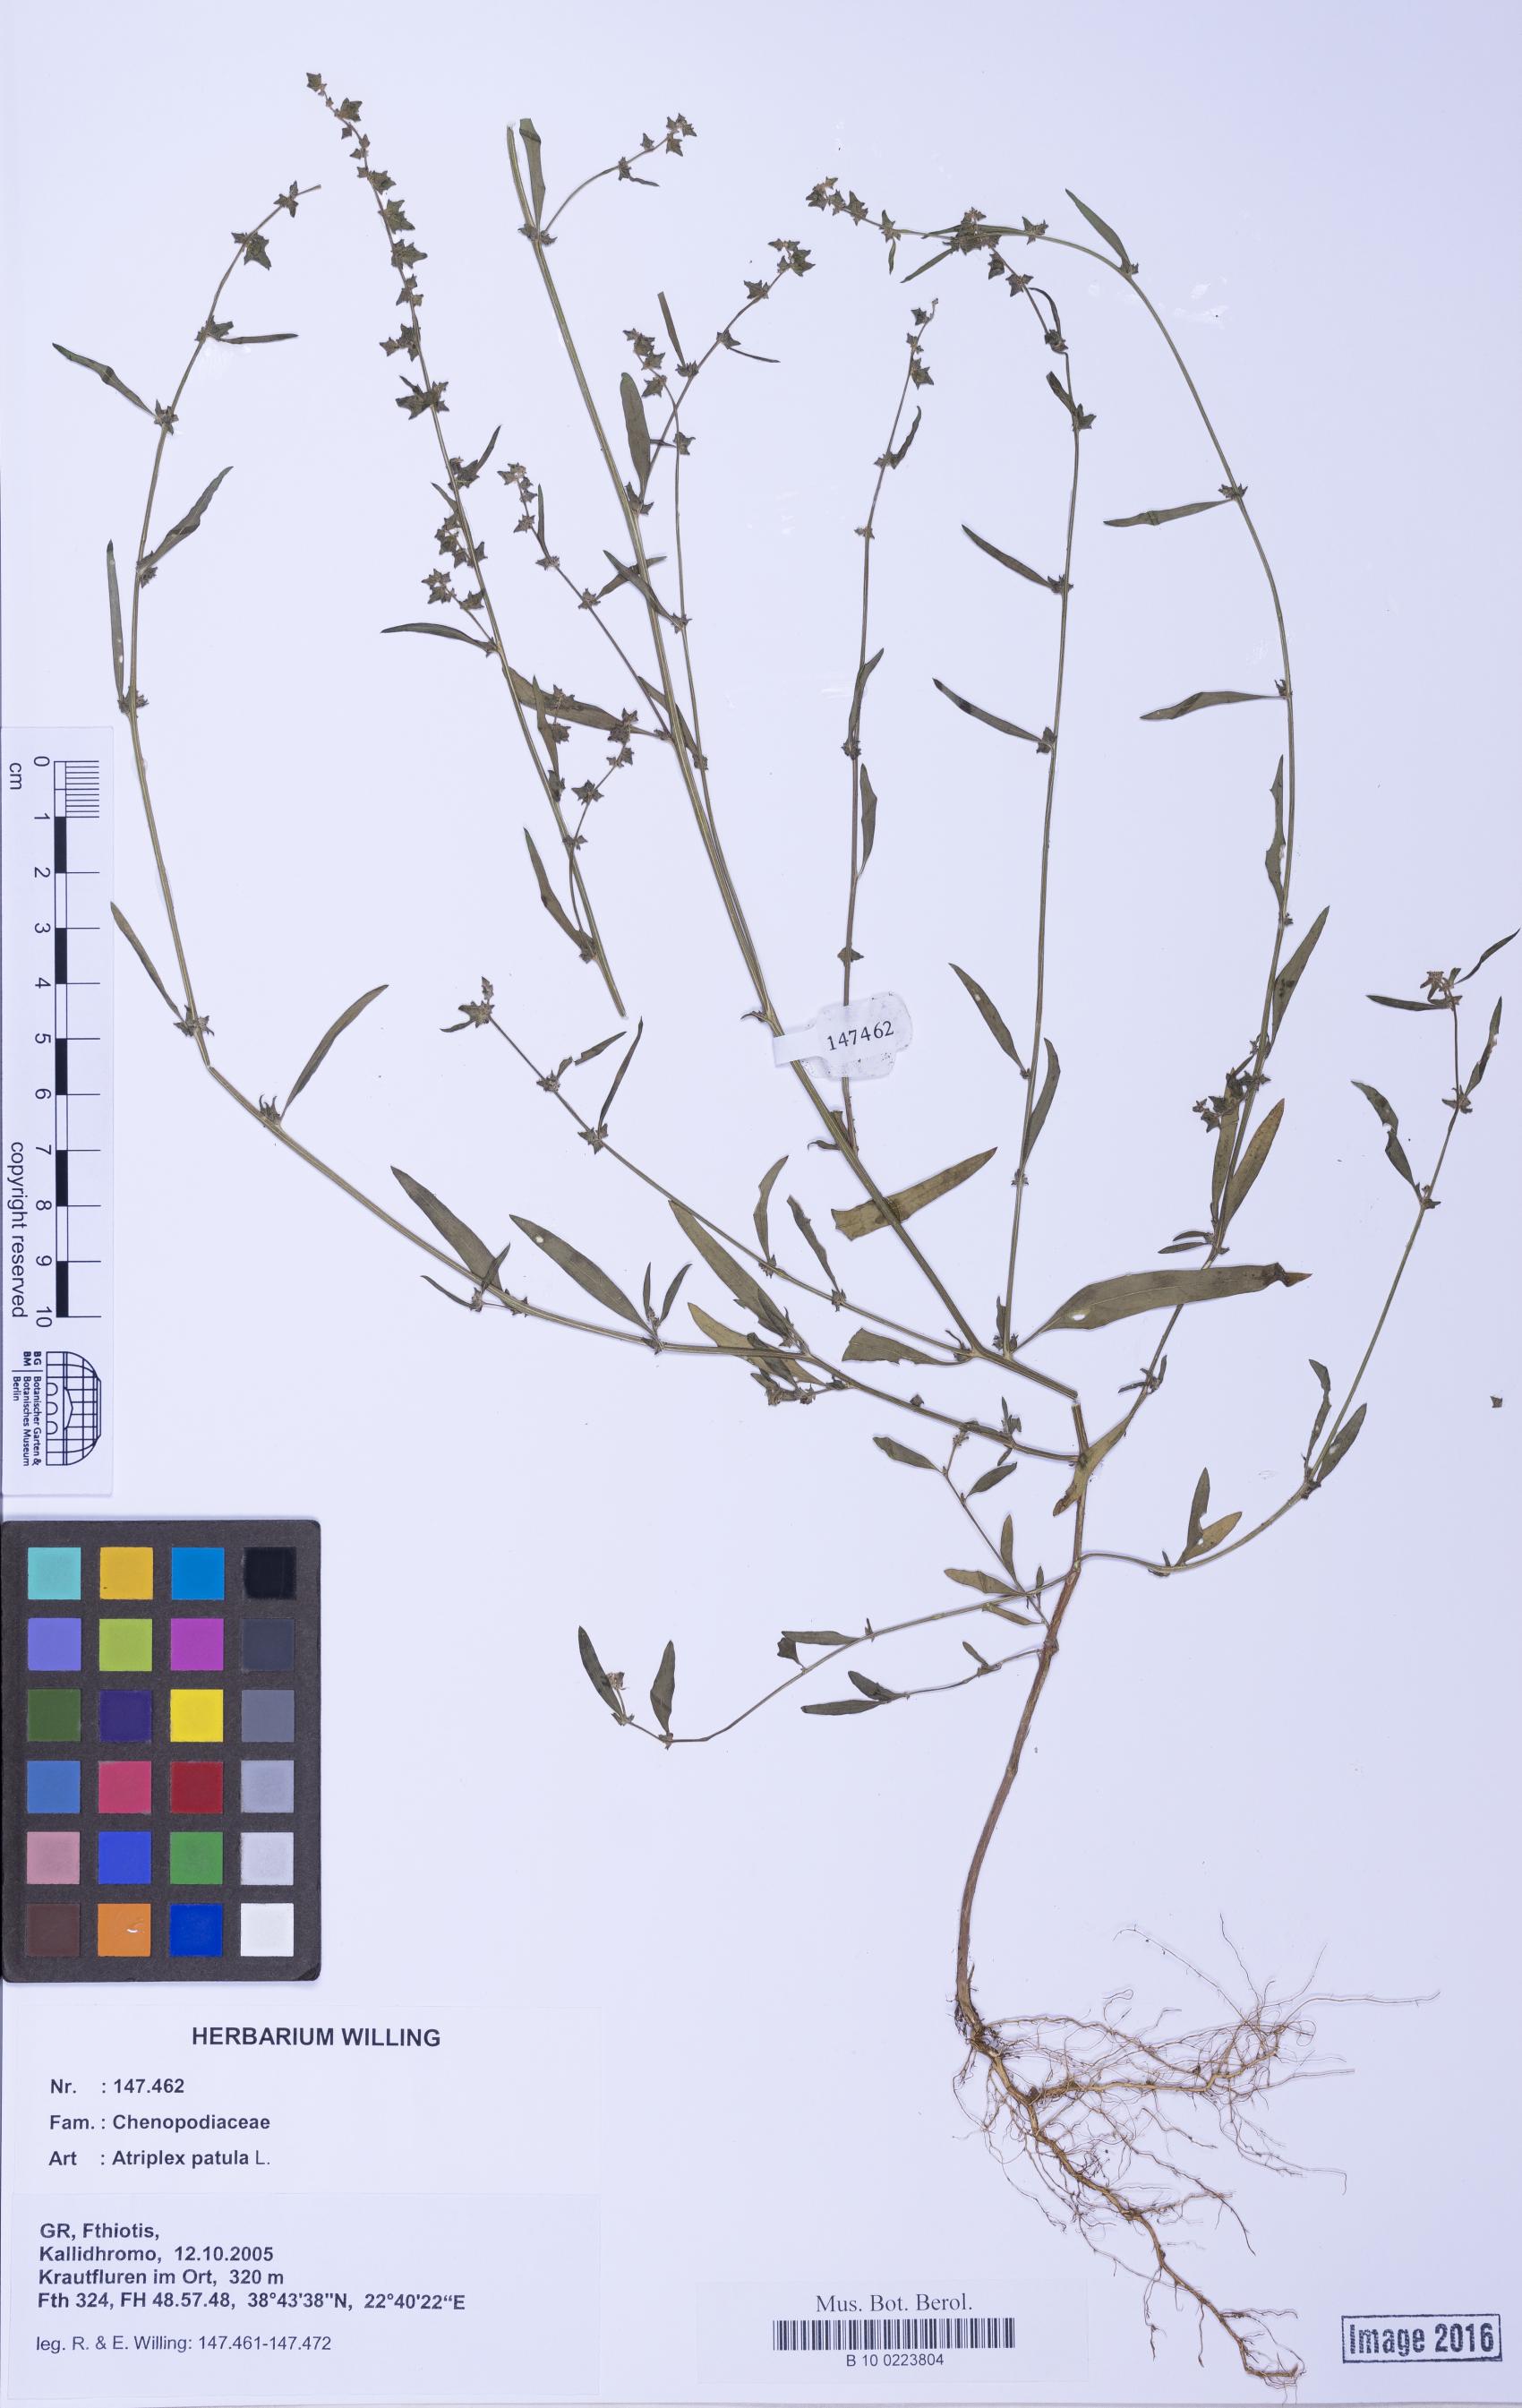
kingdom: Plantae
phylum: Tracheophyta
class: Magnoliopsida
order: Caryophyllales
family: Amaranthaceae
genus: Atriplex
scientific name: Atriplex patula
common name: Common orache
